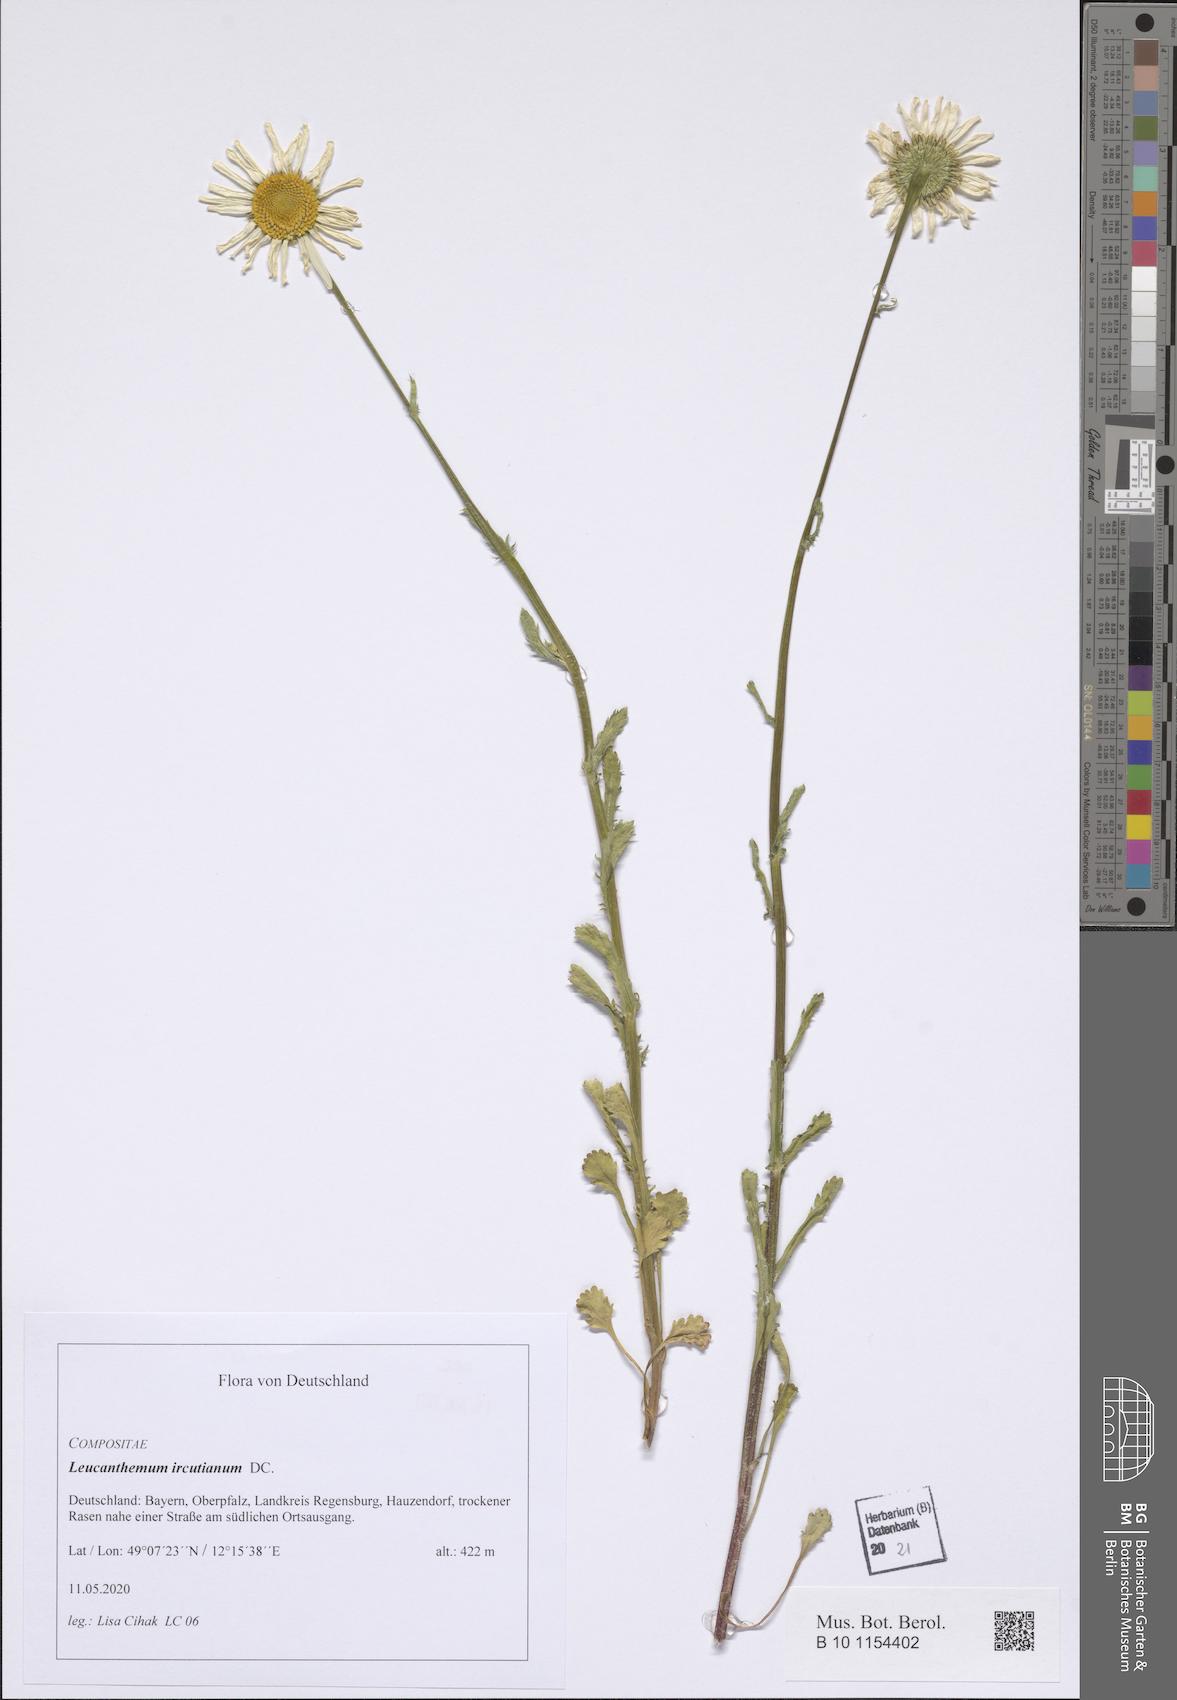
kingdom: Plantae
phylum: Tracheophyta
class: Magnoliopsida
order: Asterales
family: Asteraceae
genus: Leucanthemum
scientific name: Leucanthemum ircutianum
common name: Daisy
